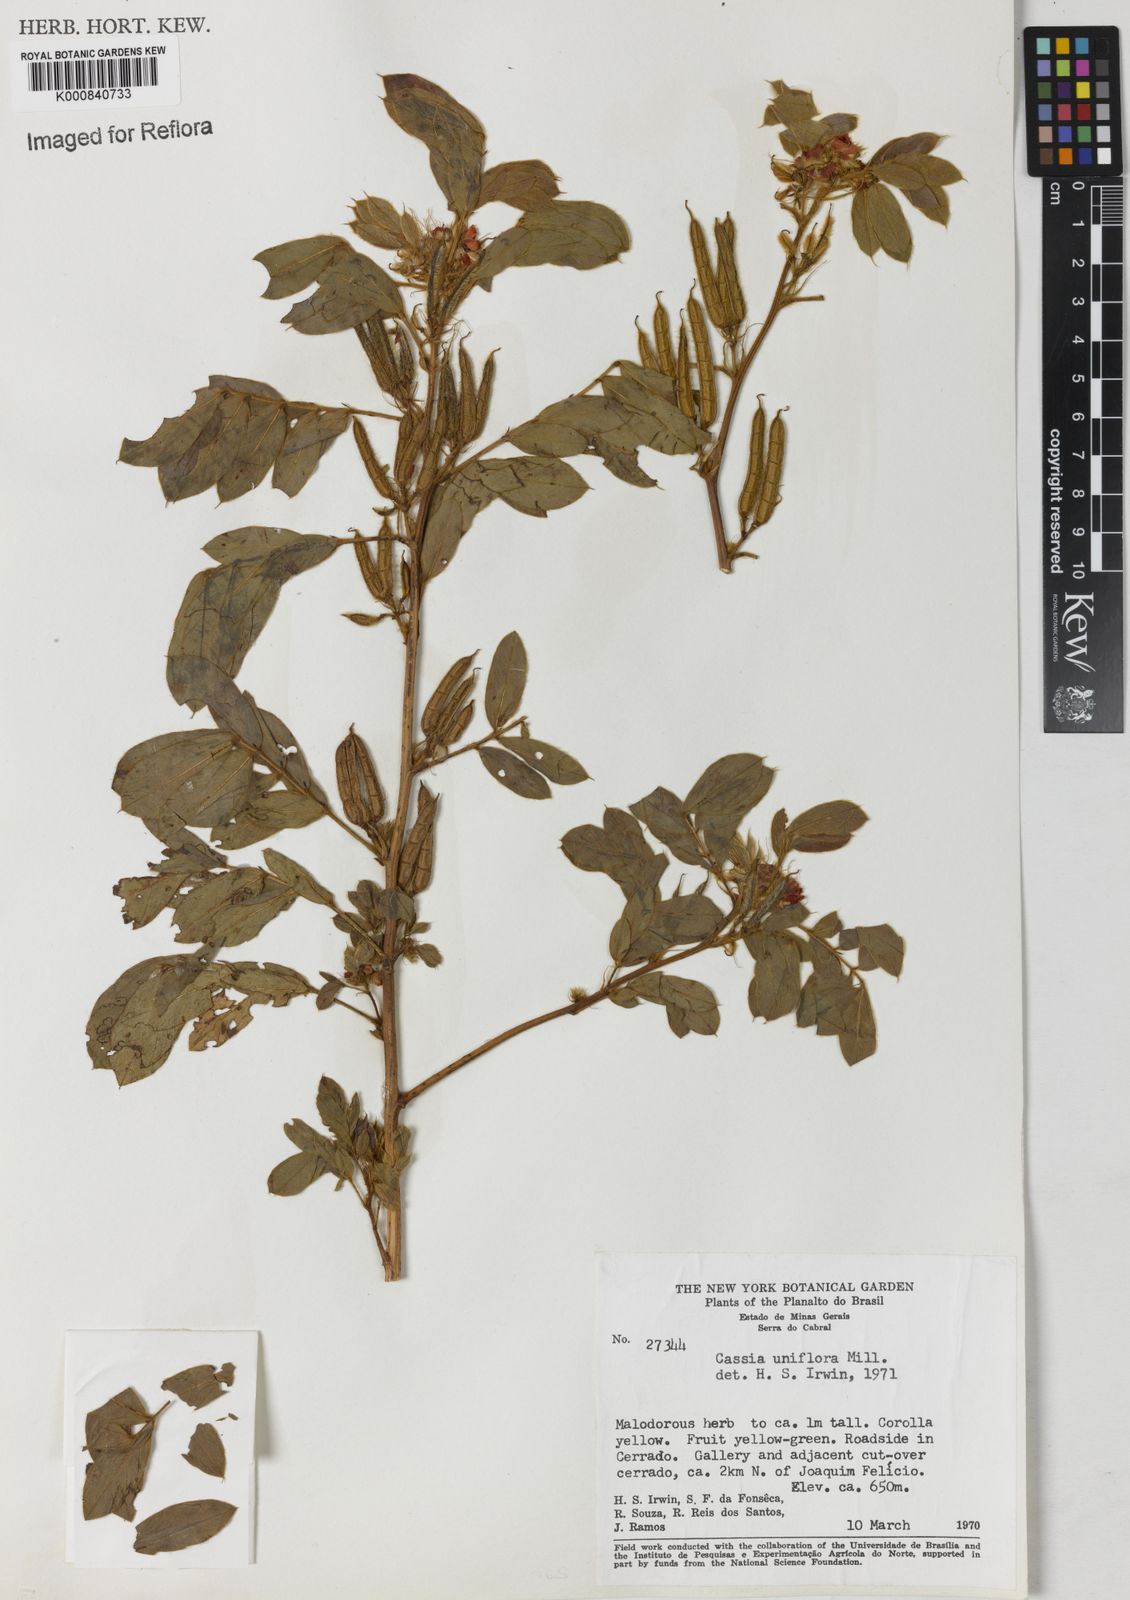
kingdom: Plantae
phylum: Tracheophyta
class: Magnoliopsida
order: Fabales
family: Fabaceae
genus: Senna
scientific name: Senna uniflora
